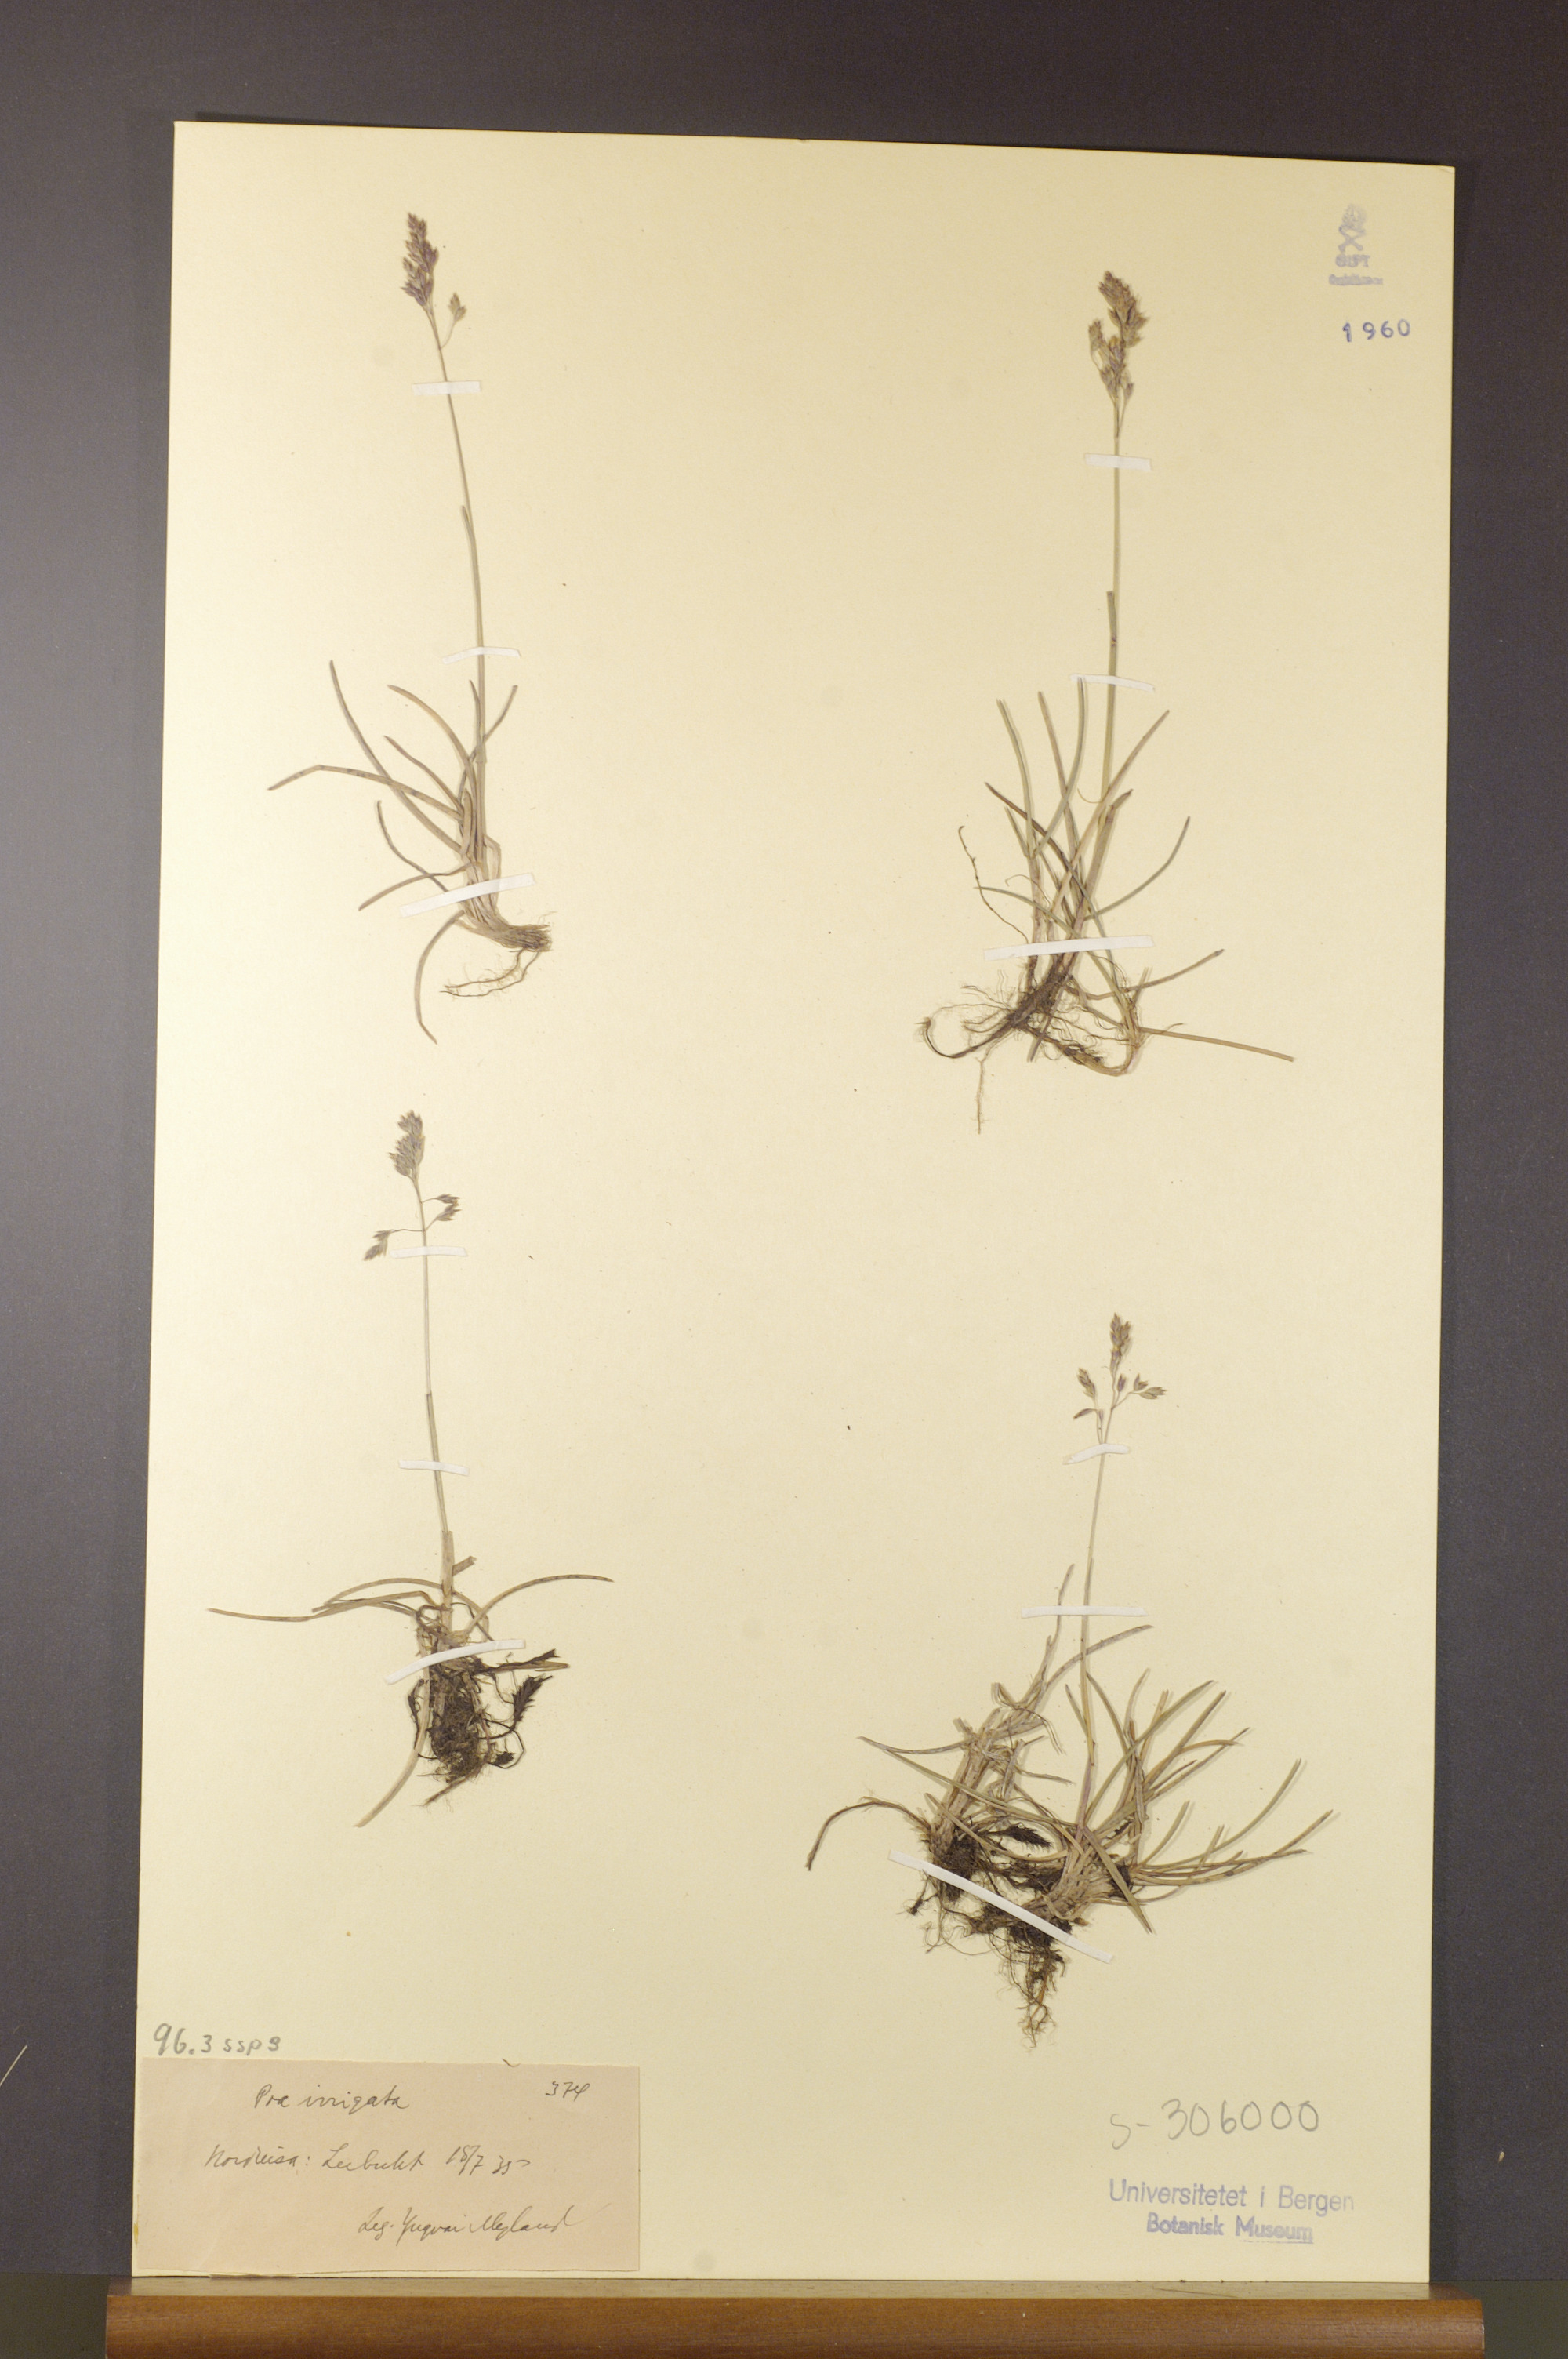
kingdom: Plantae
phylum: Tracheophyta
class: Liliopsida
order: Poales
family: Poaceae
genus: Poa
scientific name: Poa humilis
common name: Spreading meadow-grass
